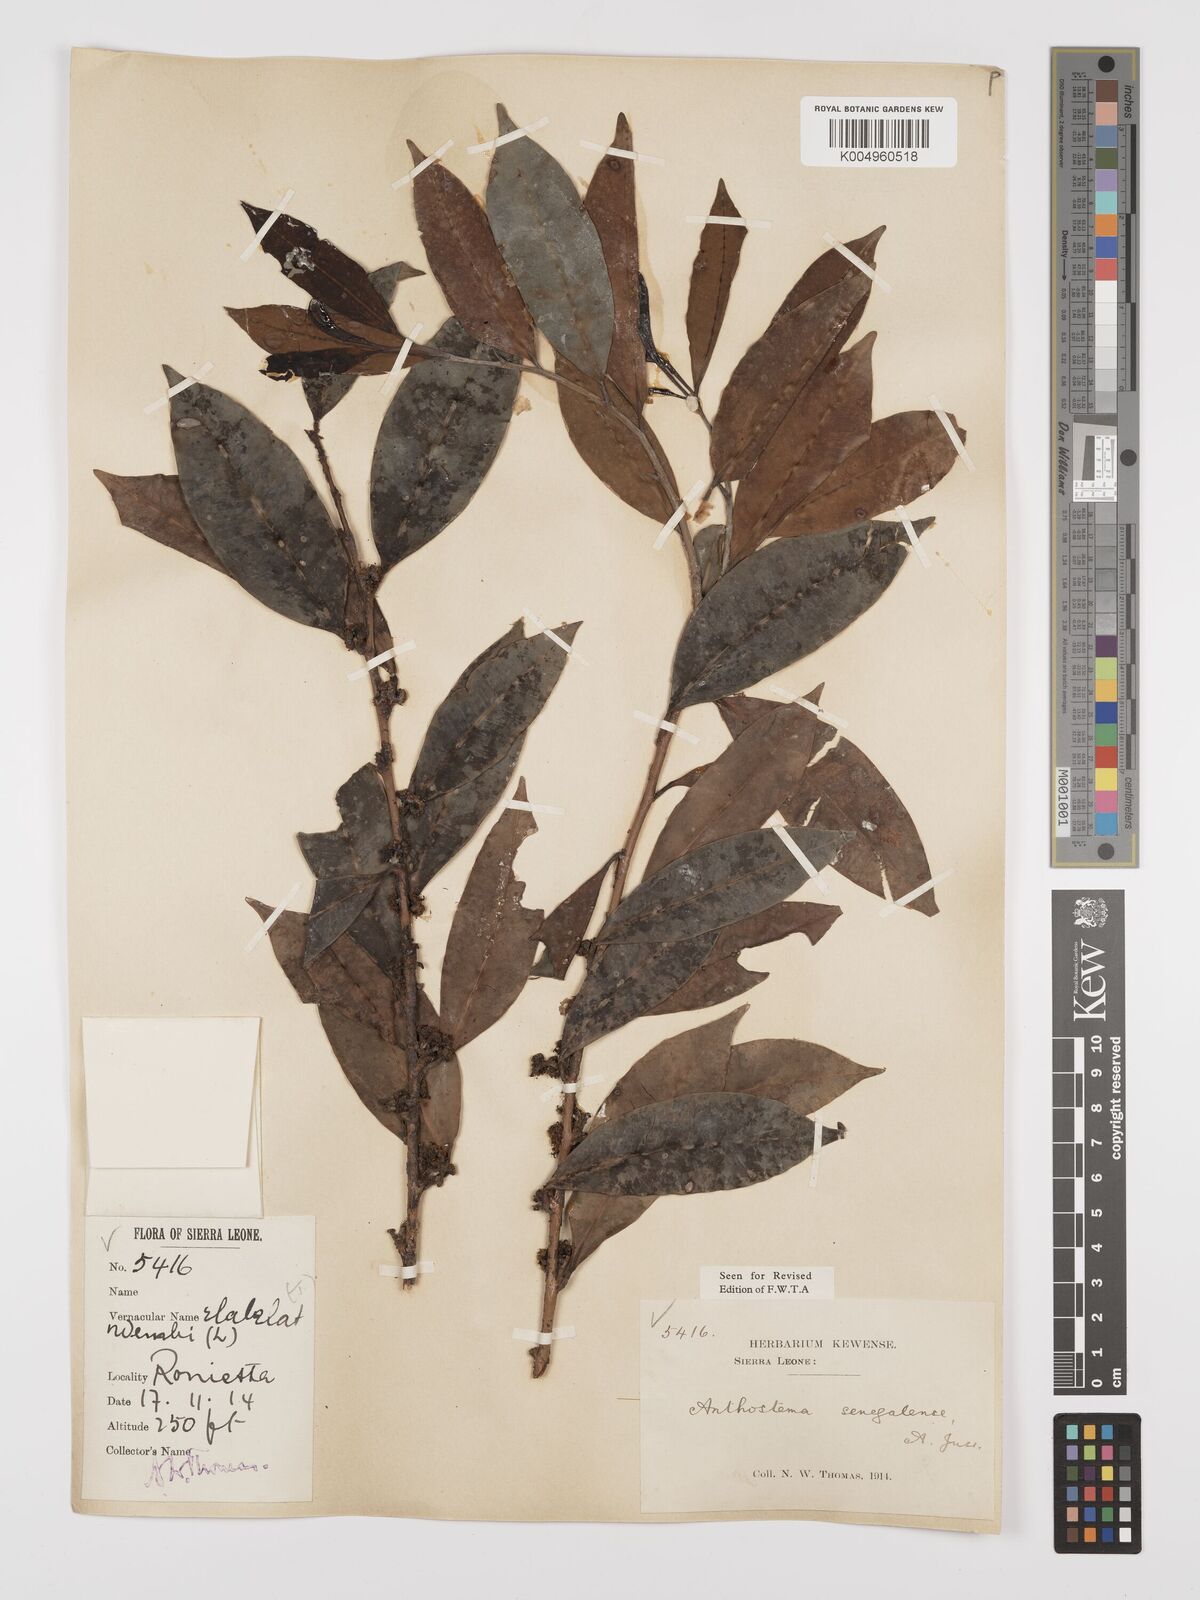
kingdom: Plantae
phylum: Tracheophyta
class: Magnoliopsida
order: Malpighiales
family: Euphorbiaceae
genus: Anthostema
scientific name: Anthostema senegalense
